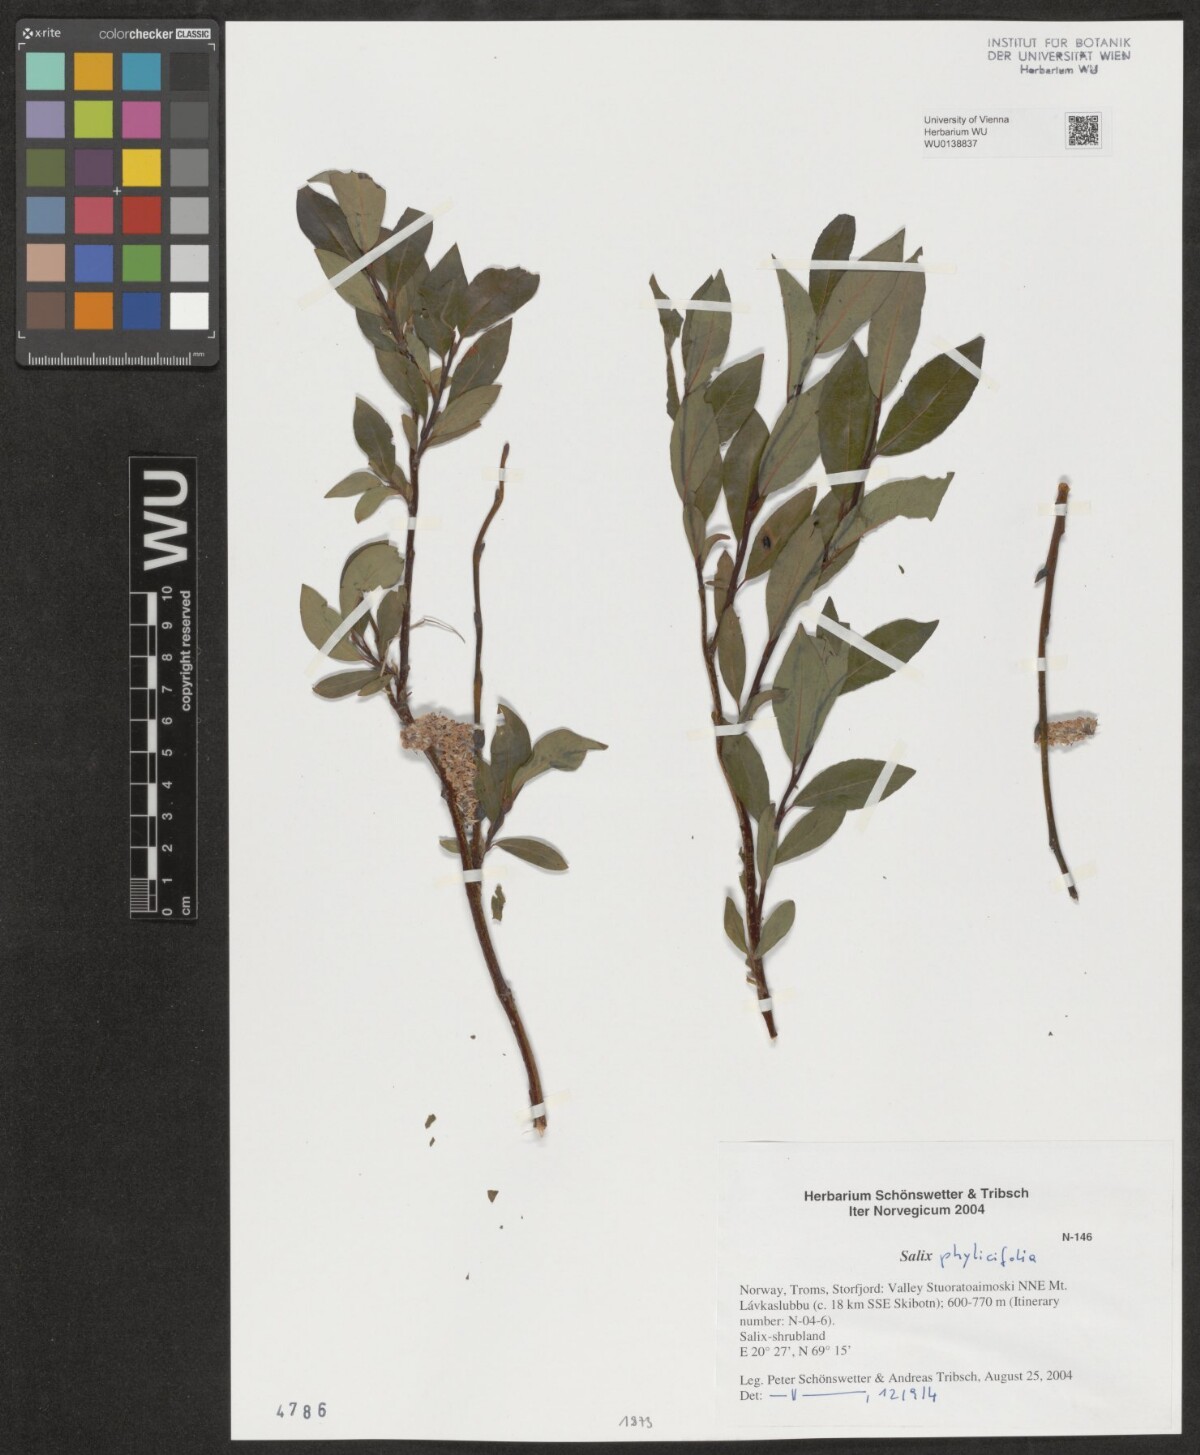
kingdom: Plantae
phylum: Tracheophyta
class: Magnoliopsida
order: Malpighiales
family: Salicaceae
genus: Salix
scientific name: Salix phylicifolia
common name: Tea-leaved willow
